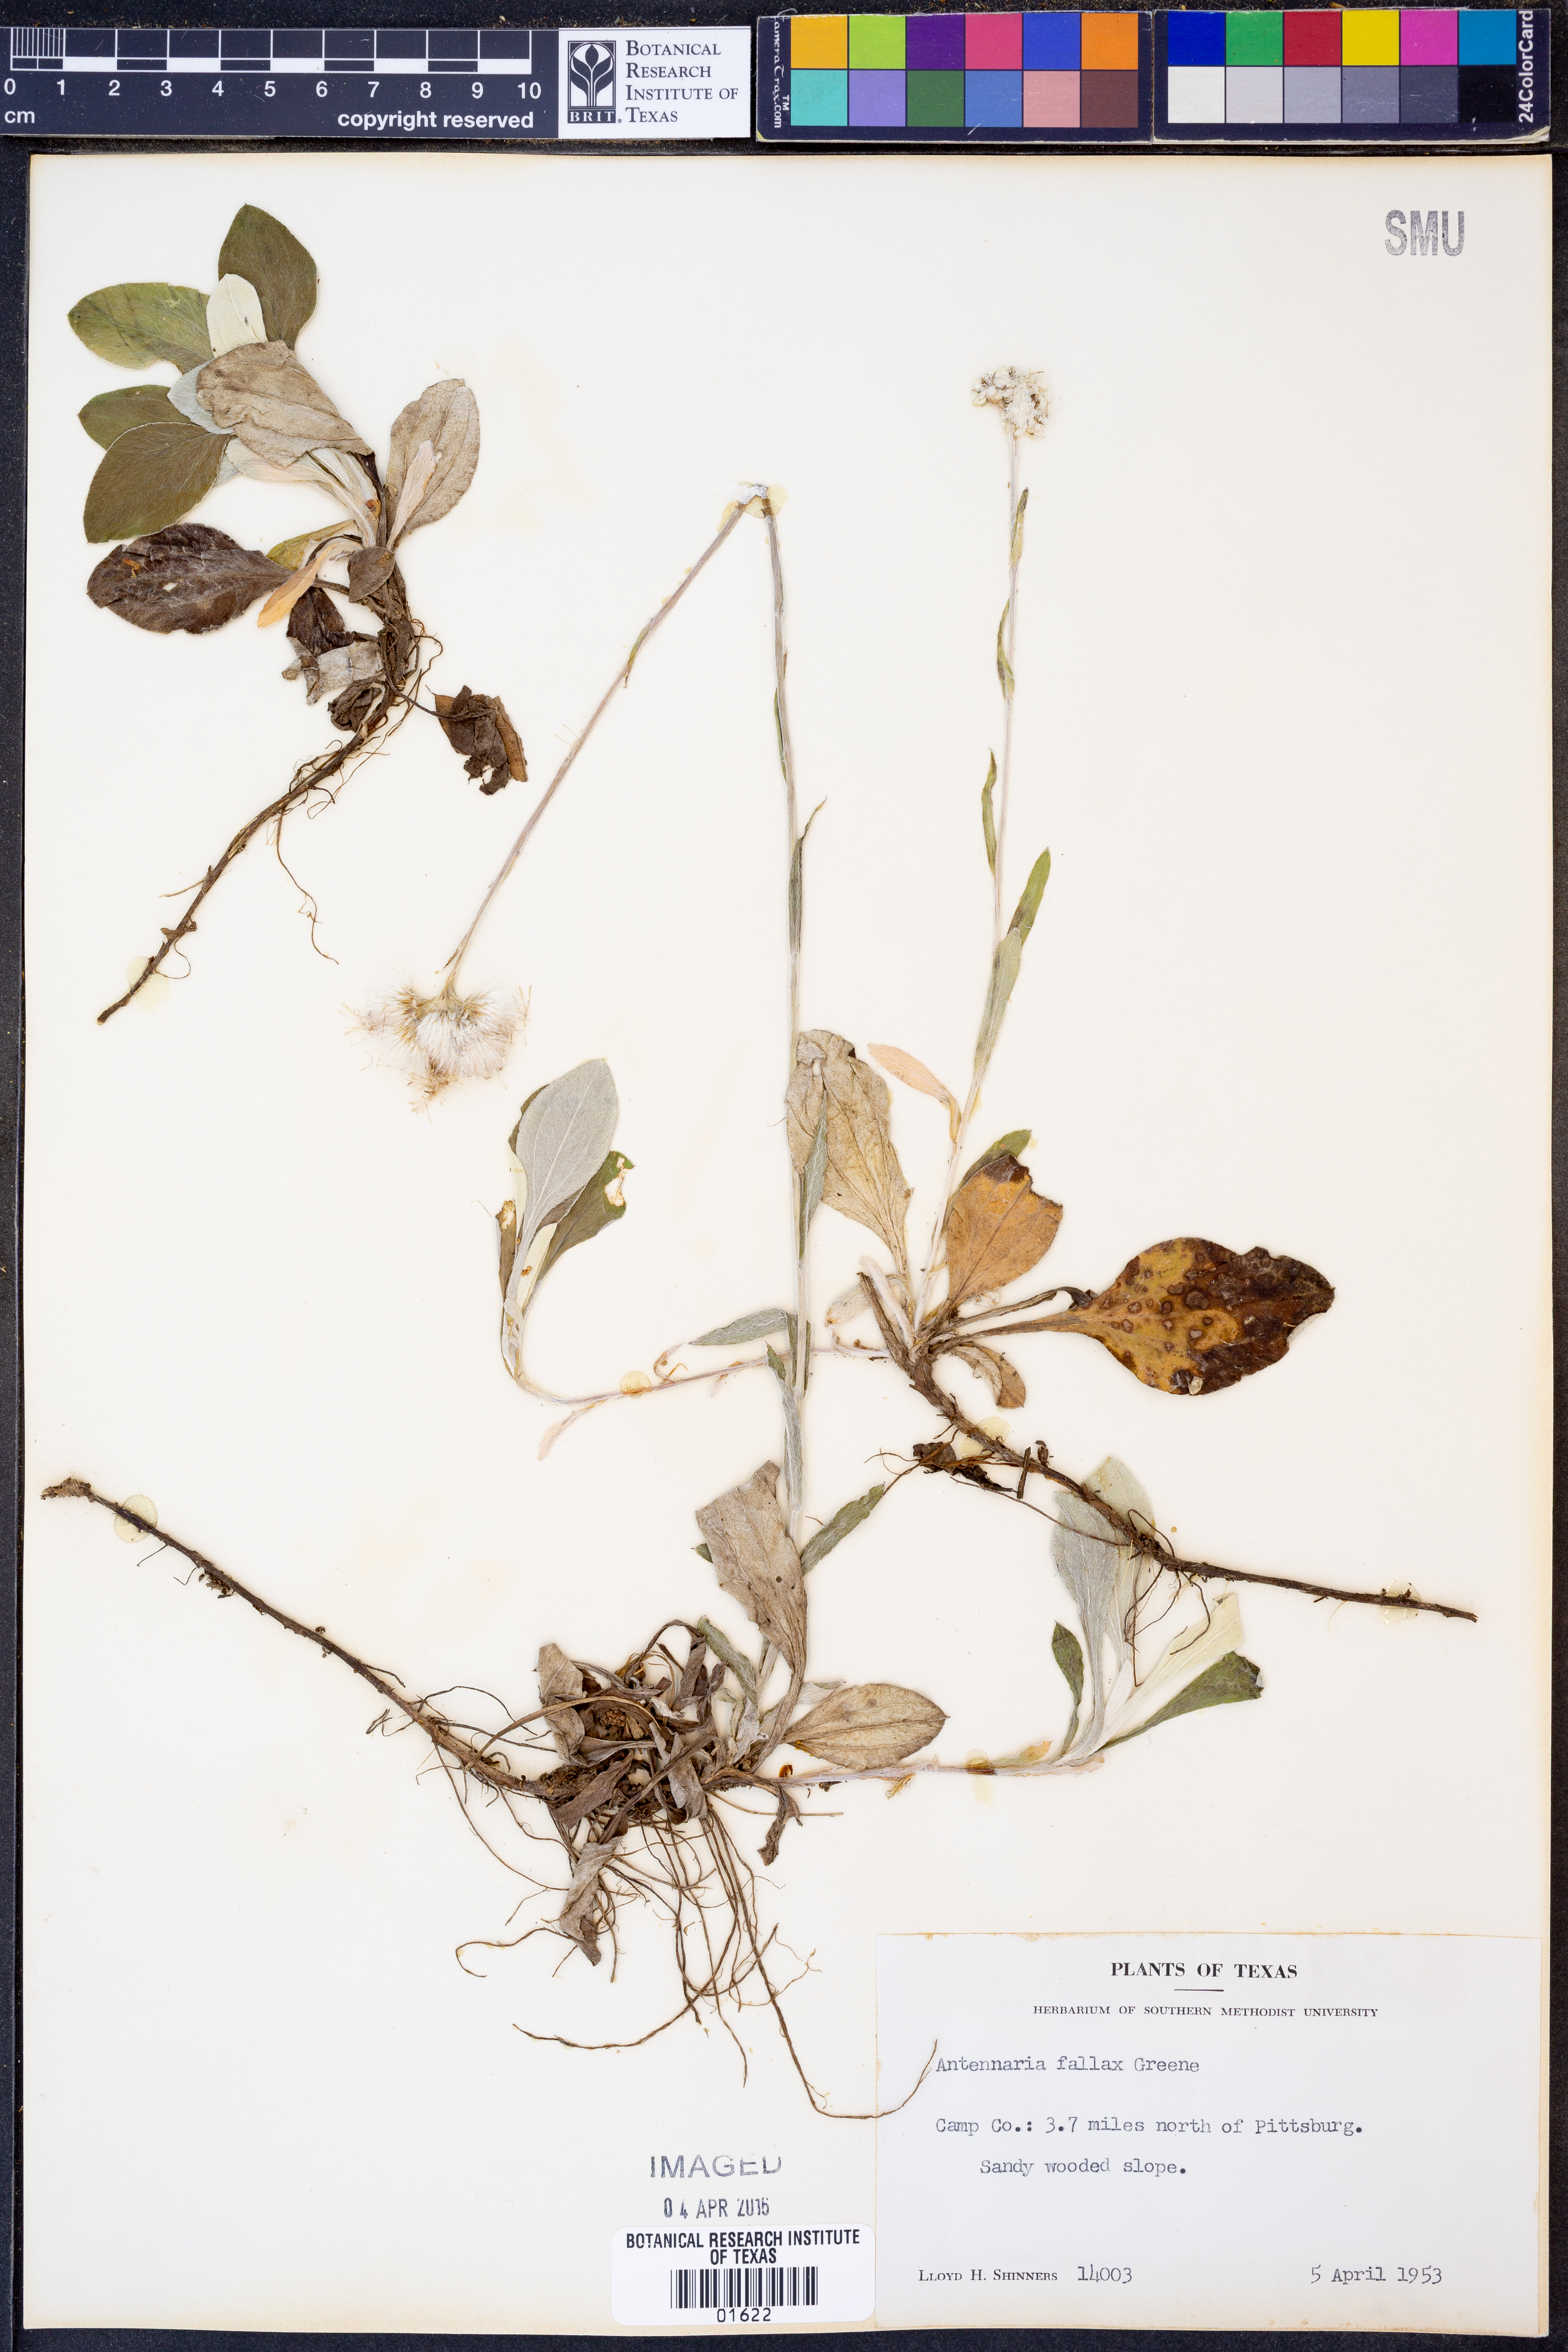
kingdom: Plantae
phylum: Tracheophyta
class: Magnoliopsida
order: Asterales
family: Asteraceae
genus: Antennaria
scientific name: Antennaria parlinii
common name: Parlin's pussytoes
